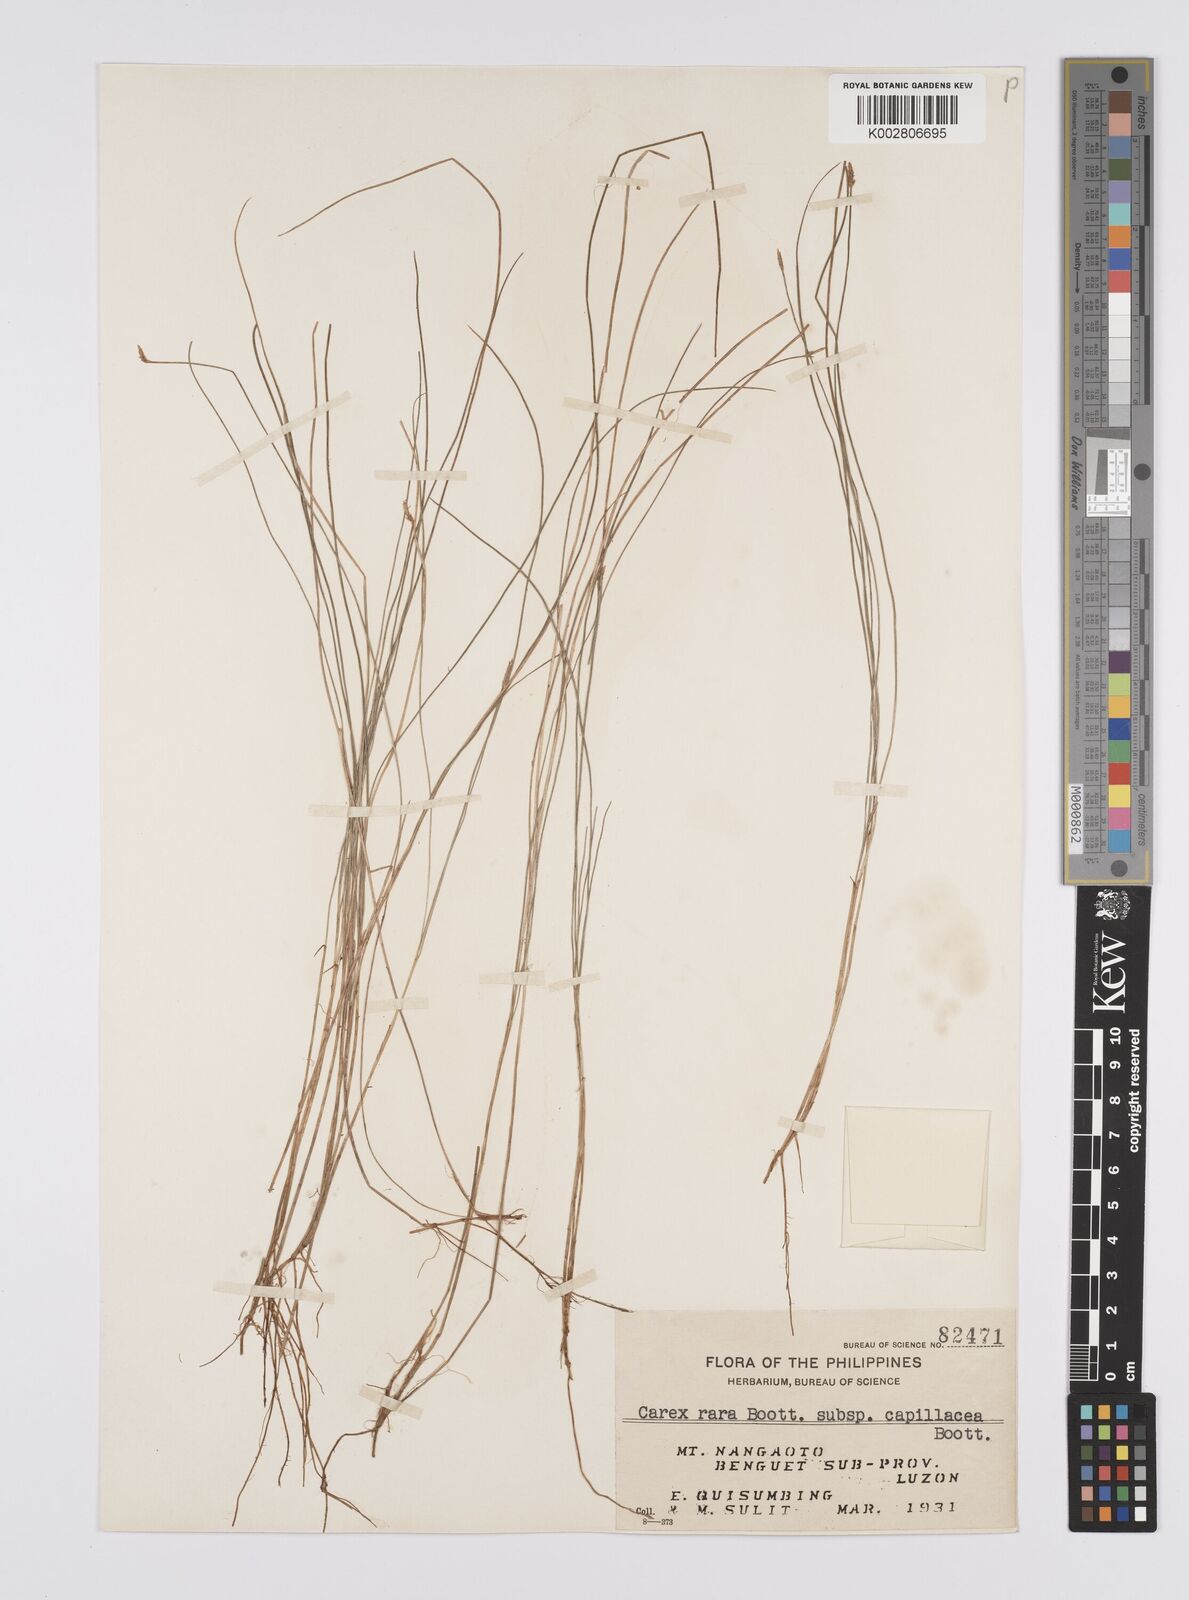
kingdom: Plantae
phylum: Tracheophyta
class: Liliopsida
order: Poales
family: Cyperaceae
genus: Carex
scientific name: Carex capillacea
